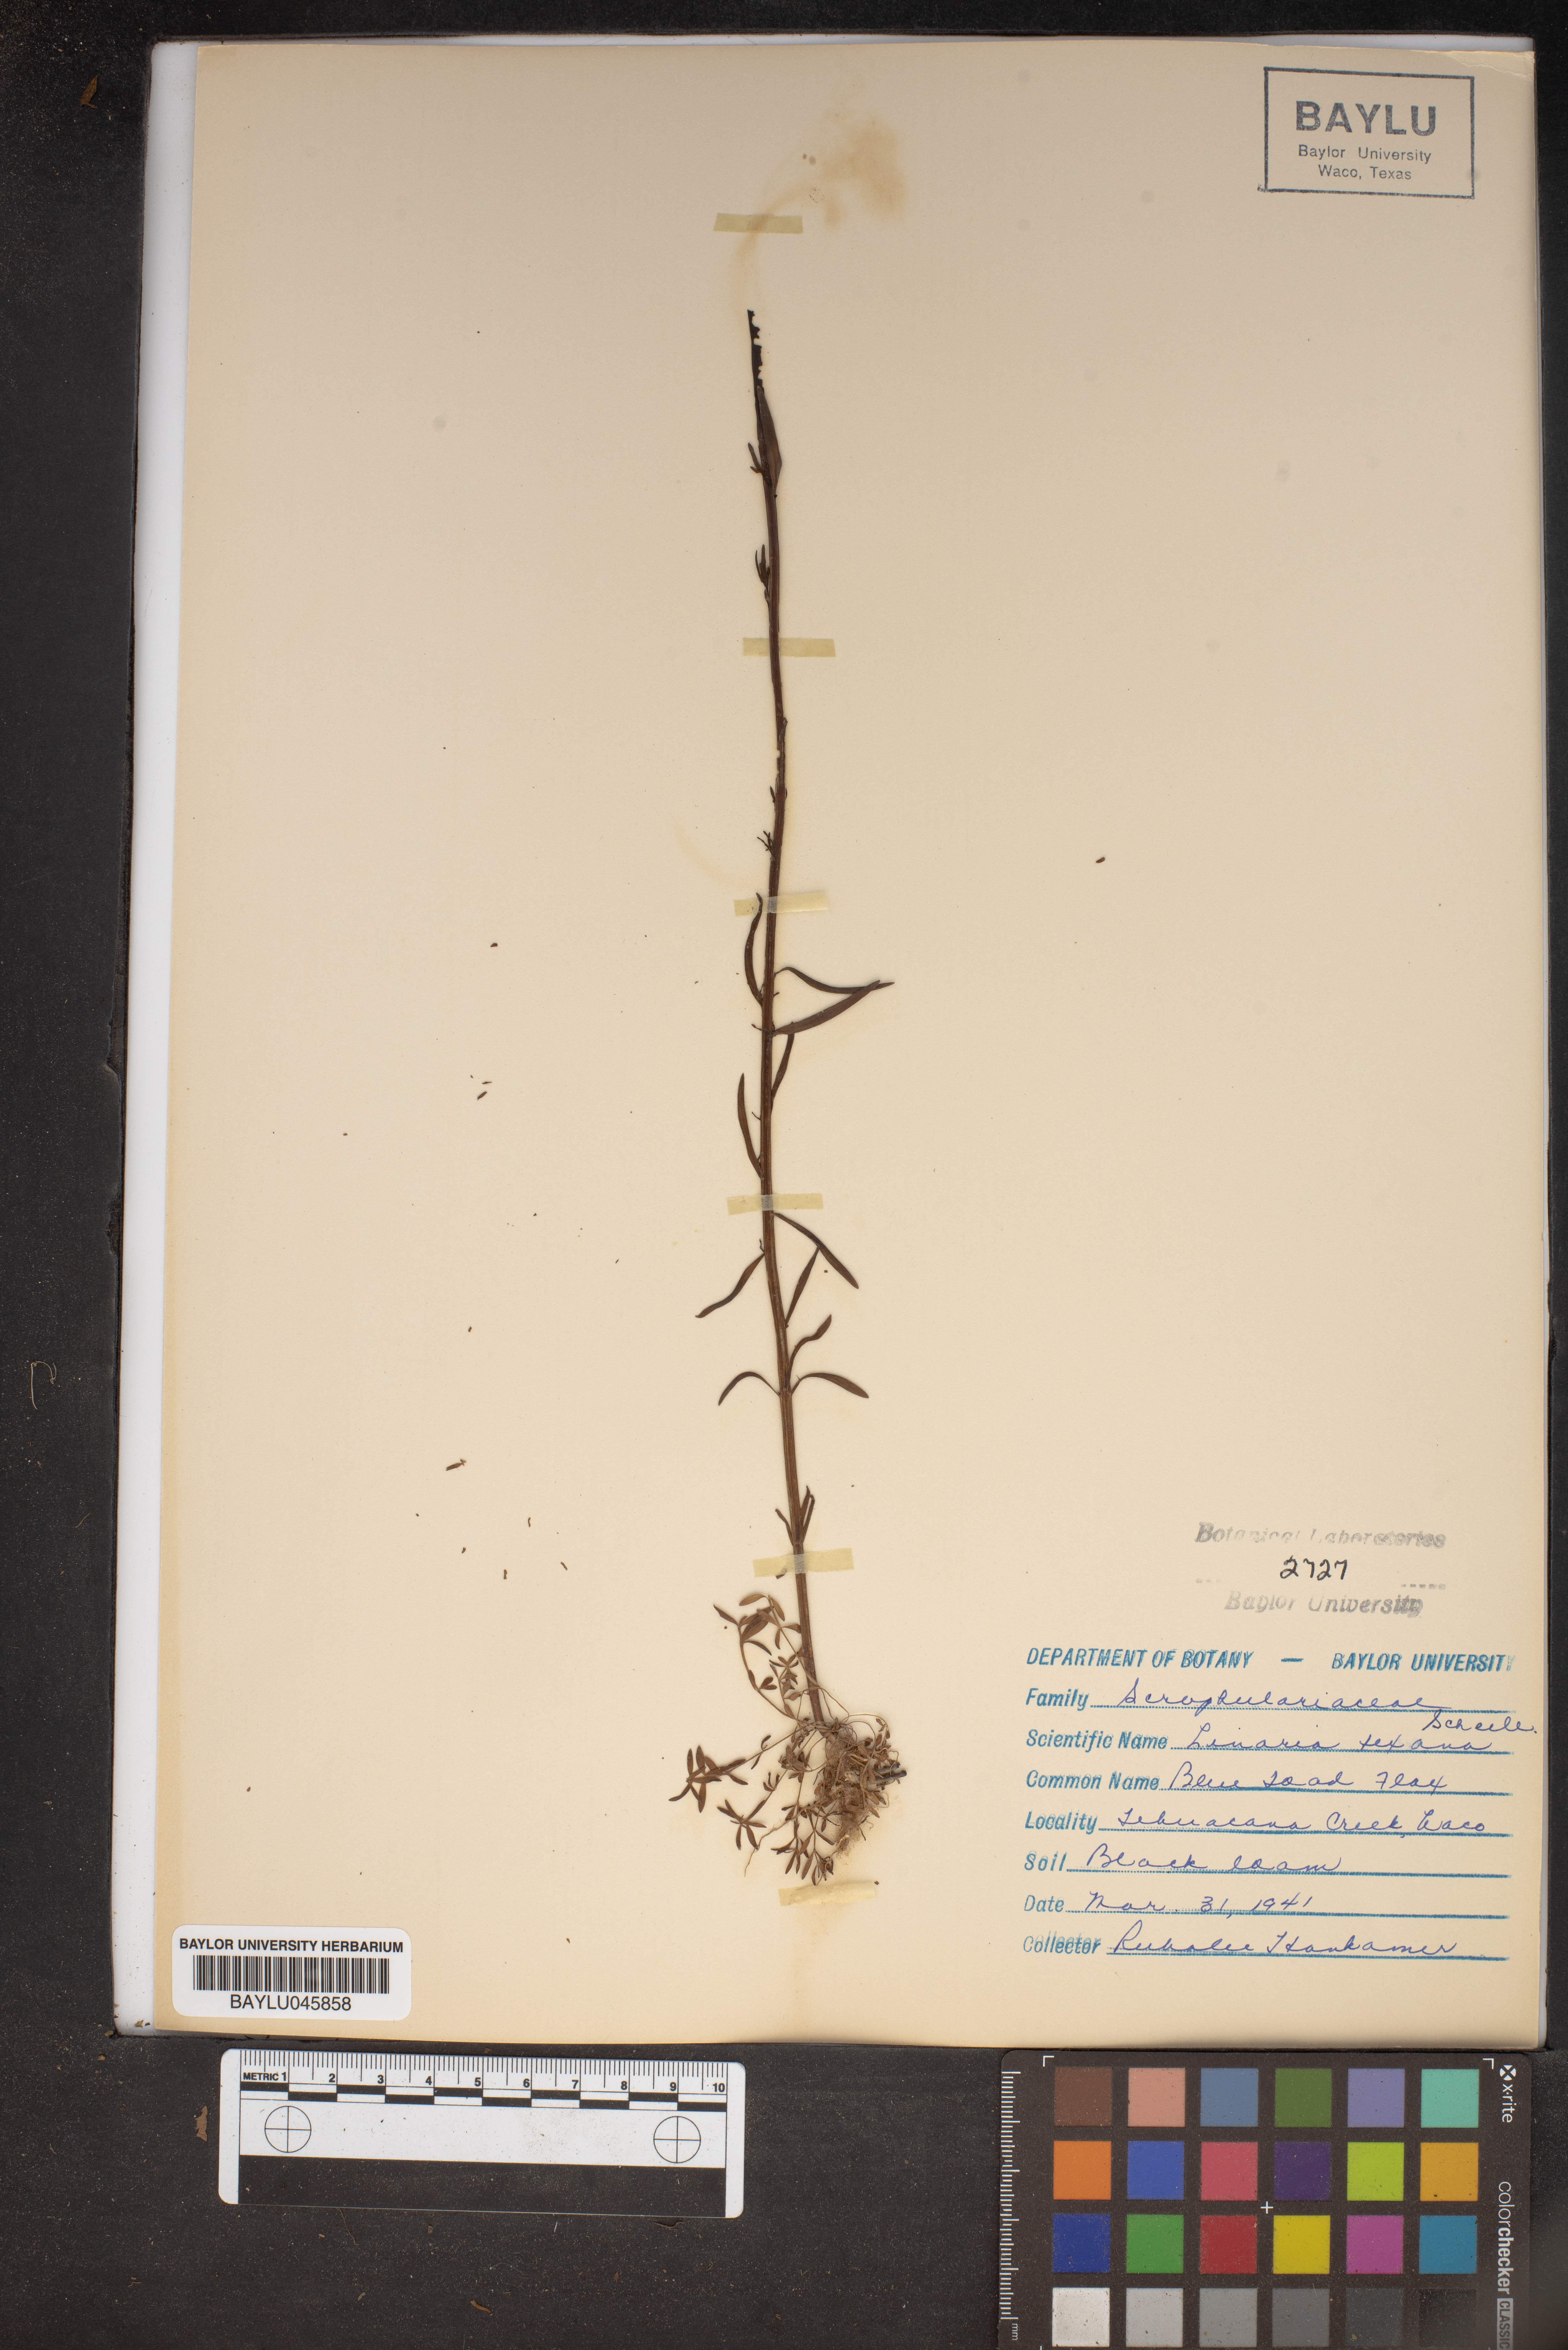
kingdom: Plantae
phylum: Tracheophyta
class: Magnoliopsida
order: Lamiales
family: Plantaginaceae
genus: Nuttallanthus
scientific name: Nuttallanthus texanus
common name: Texas toadflax
